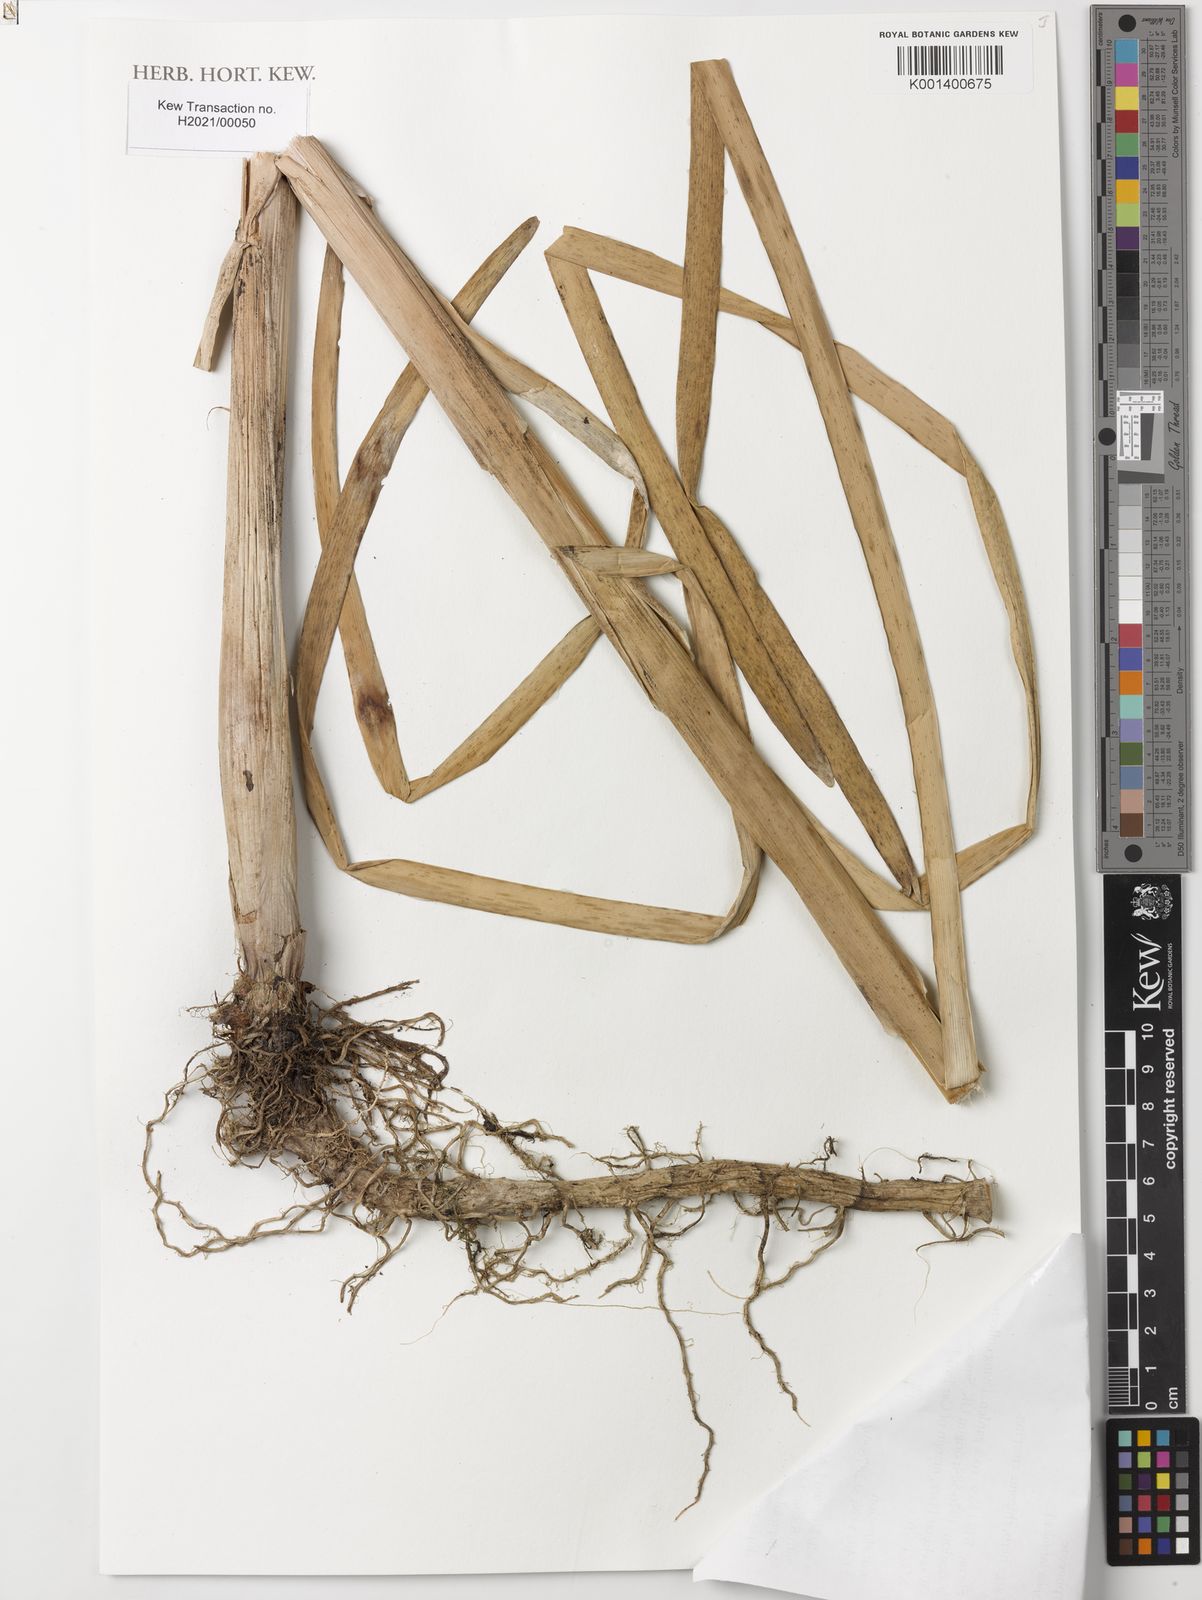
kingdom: Plantae
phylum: Tracheophyta
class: Liliopsida
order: Poales
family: Typhaceae
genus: Typha
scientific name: Typha latifolia
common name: Broadleaf cattail
